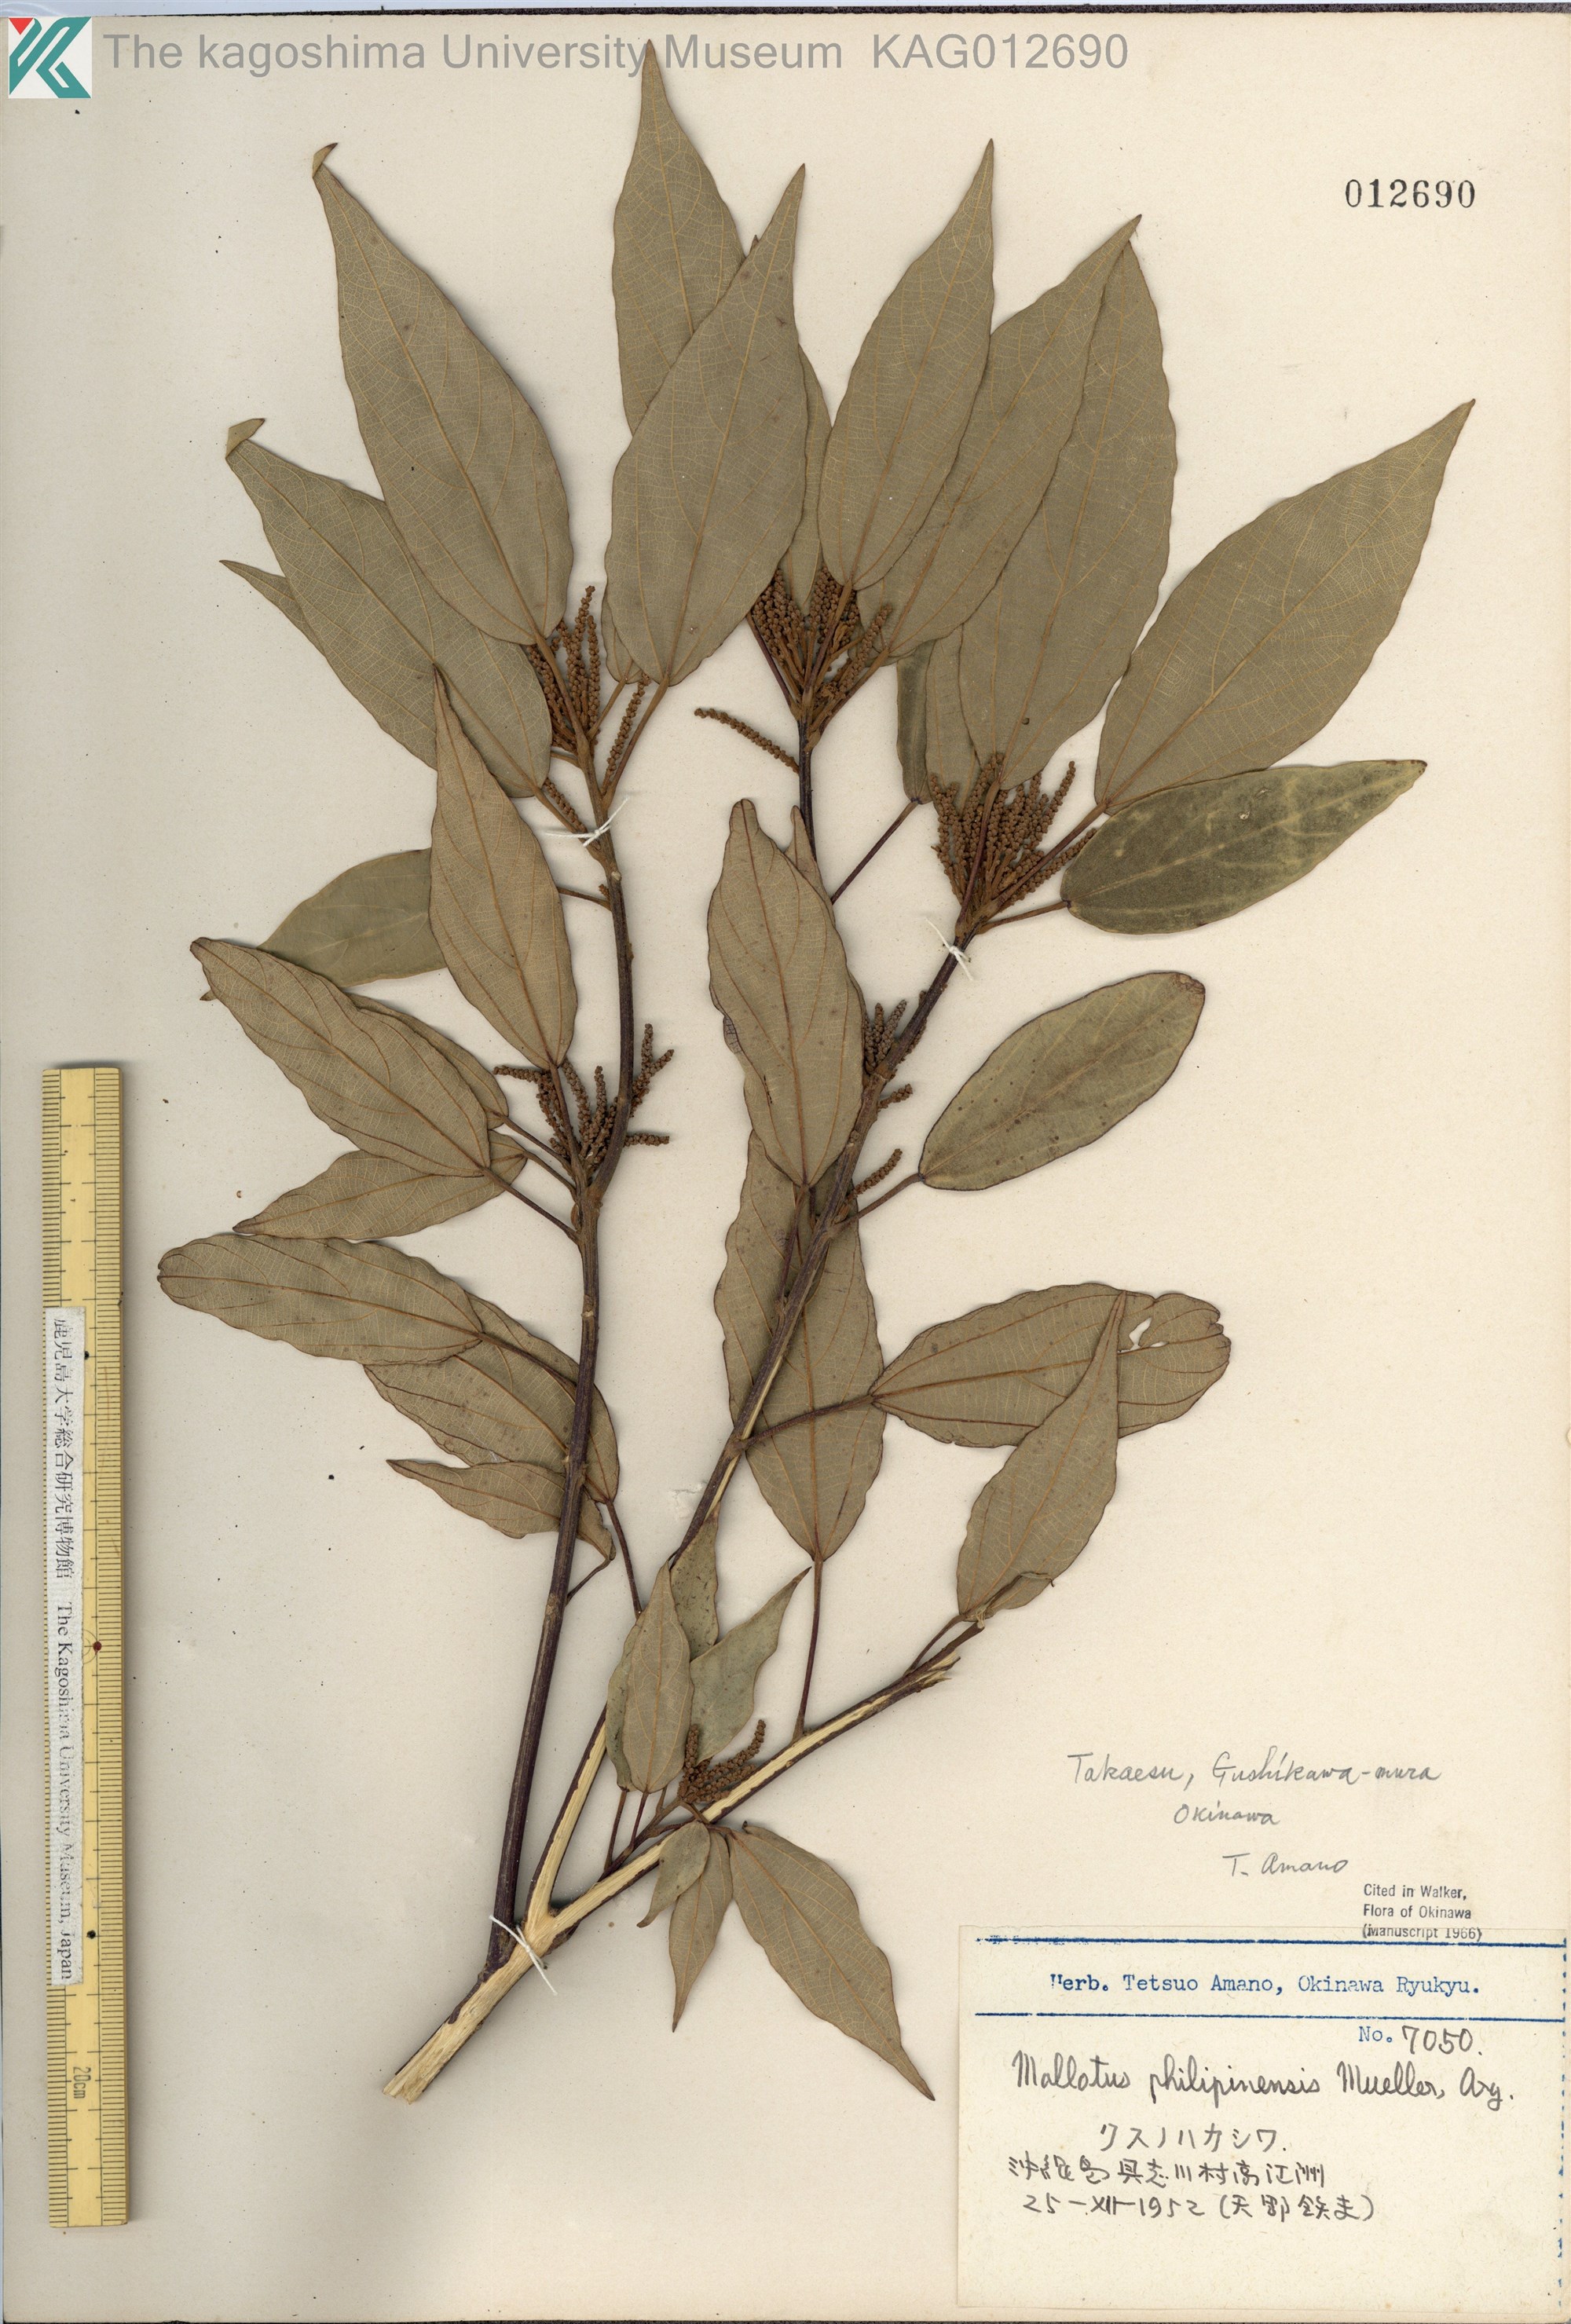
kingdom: Plantae
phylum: Tracheophyta
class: Magnoliopsida
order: Malpighiales
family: Euphorbiaceae
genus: Mallotus
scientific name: Mallotus philippensis
